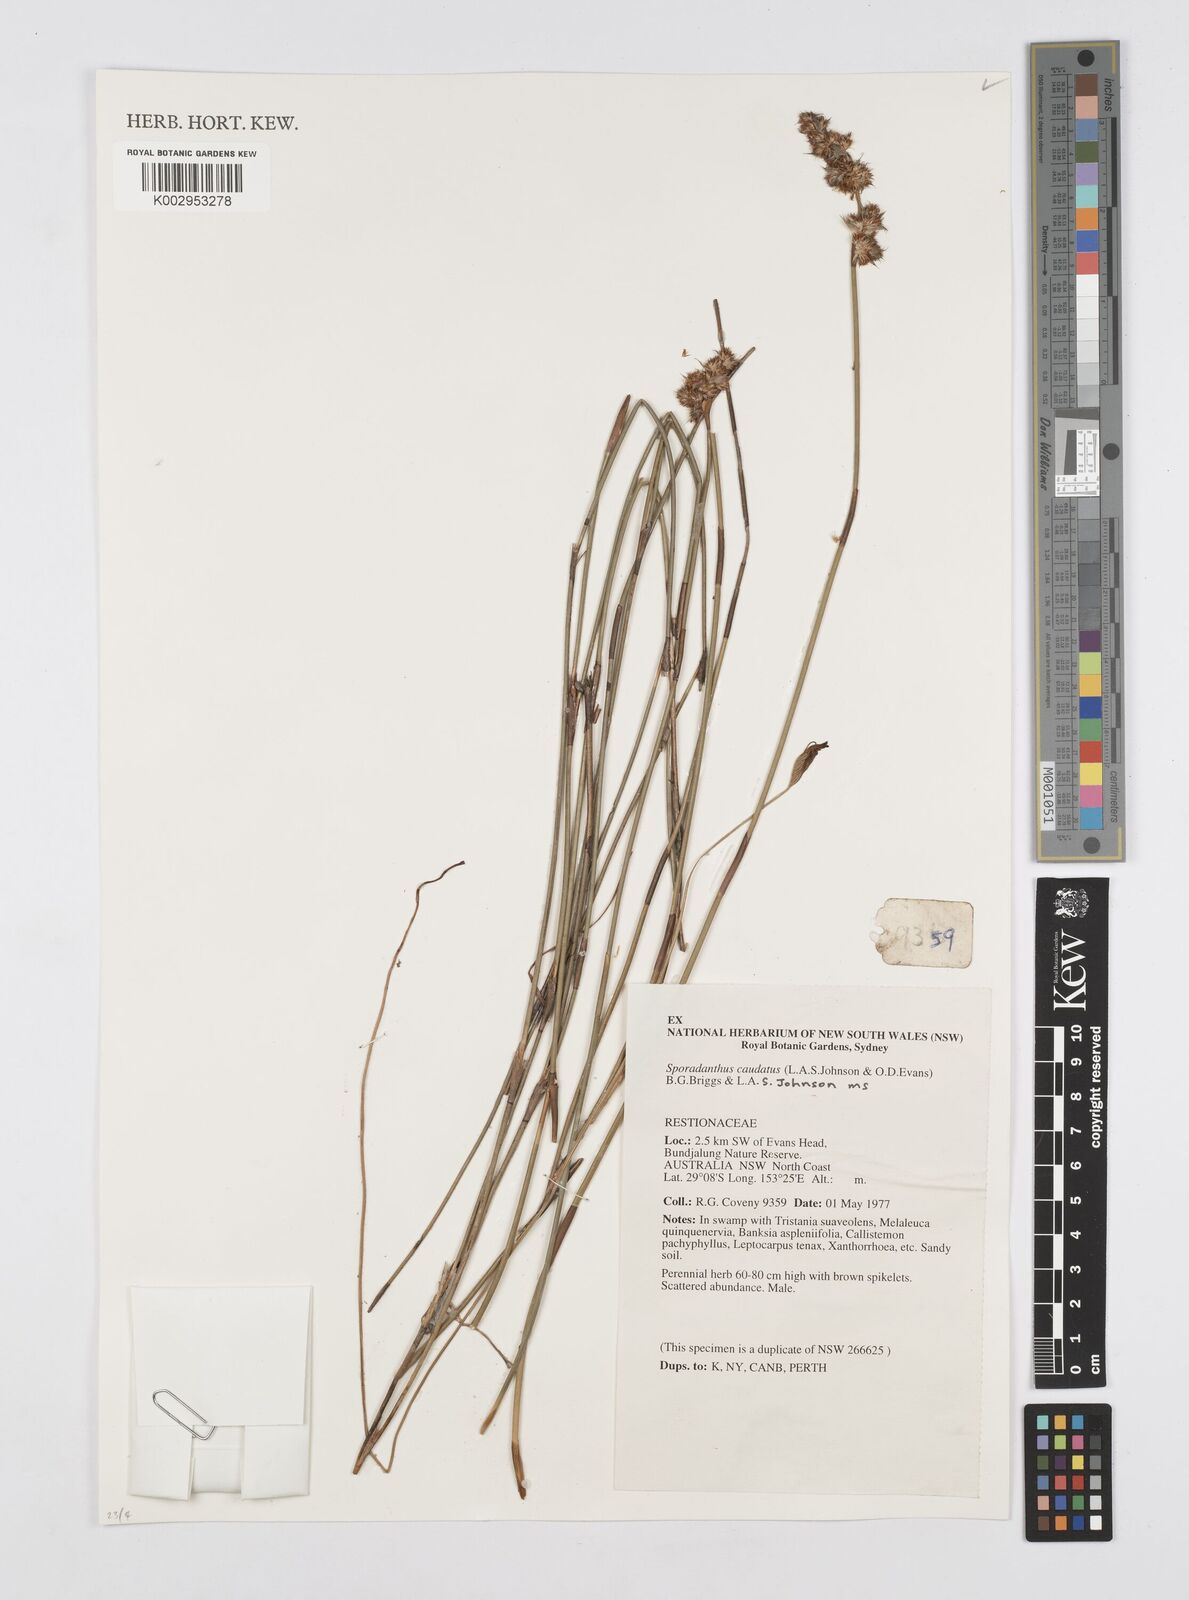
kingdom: Plantae
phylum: Tracheophyta
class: Liliopsida
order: Poales
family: Restionaceae
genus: Sporadanthus
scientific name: Sporadanthus caudatus
